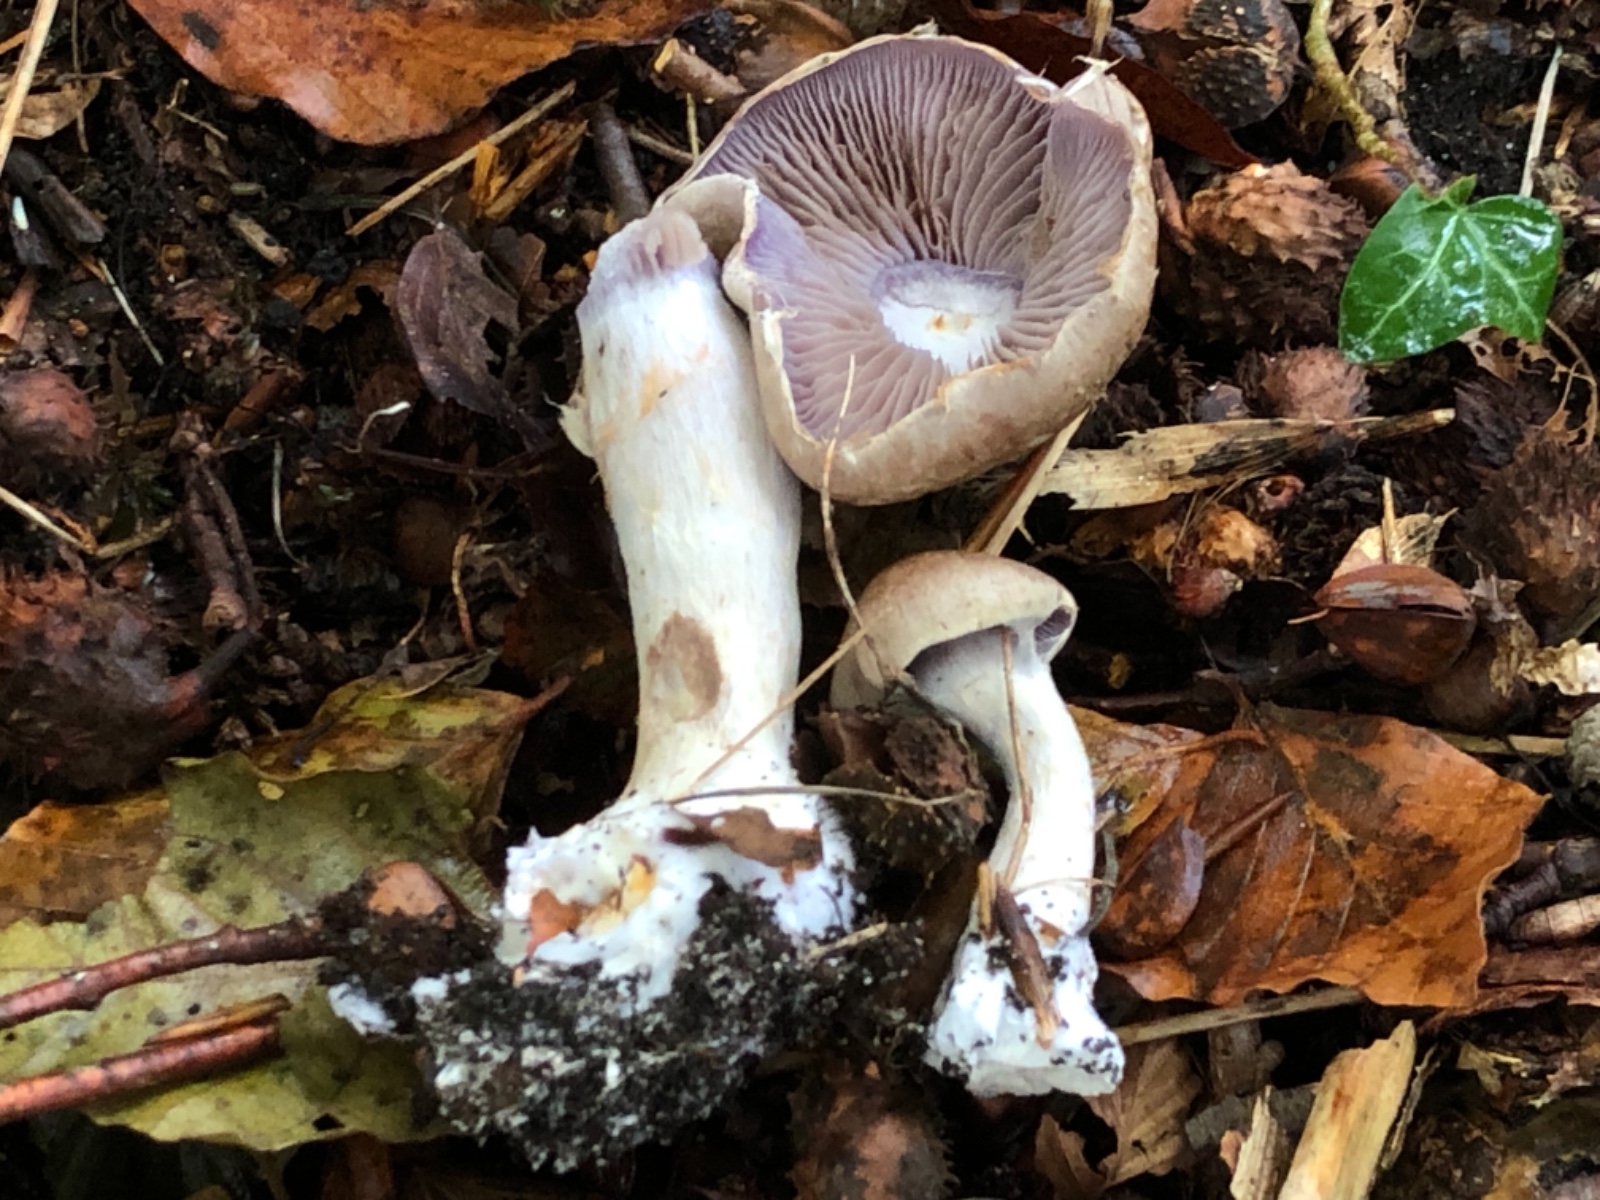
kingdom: Fungi
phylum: Basidiomycota
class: Agaricomycetes
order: Agaricales
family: Cortinariaceae
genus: Cortinarius
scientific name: Cortinarius
